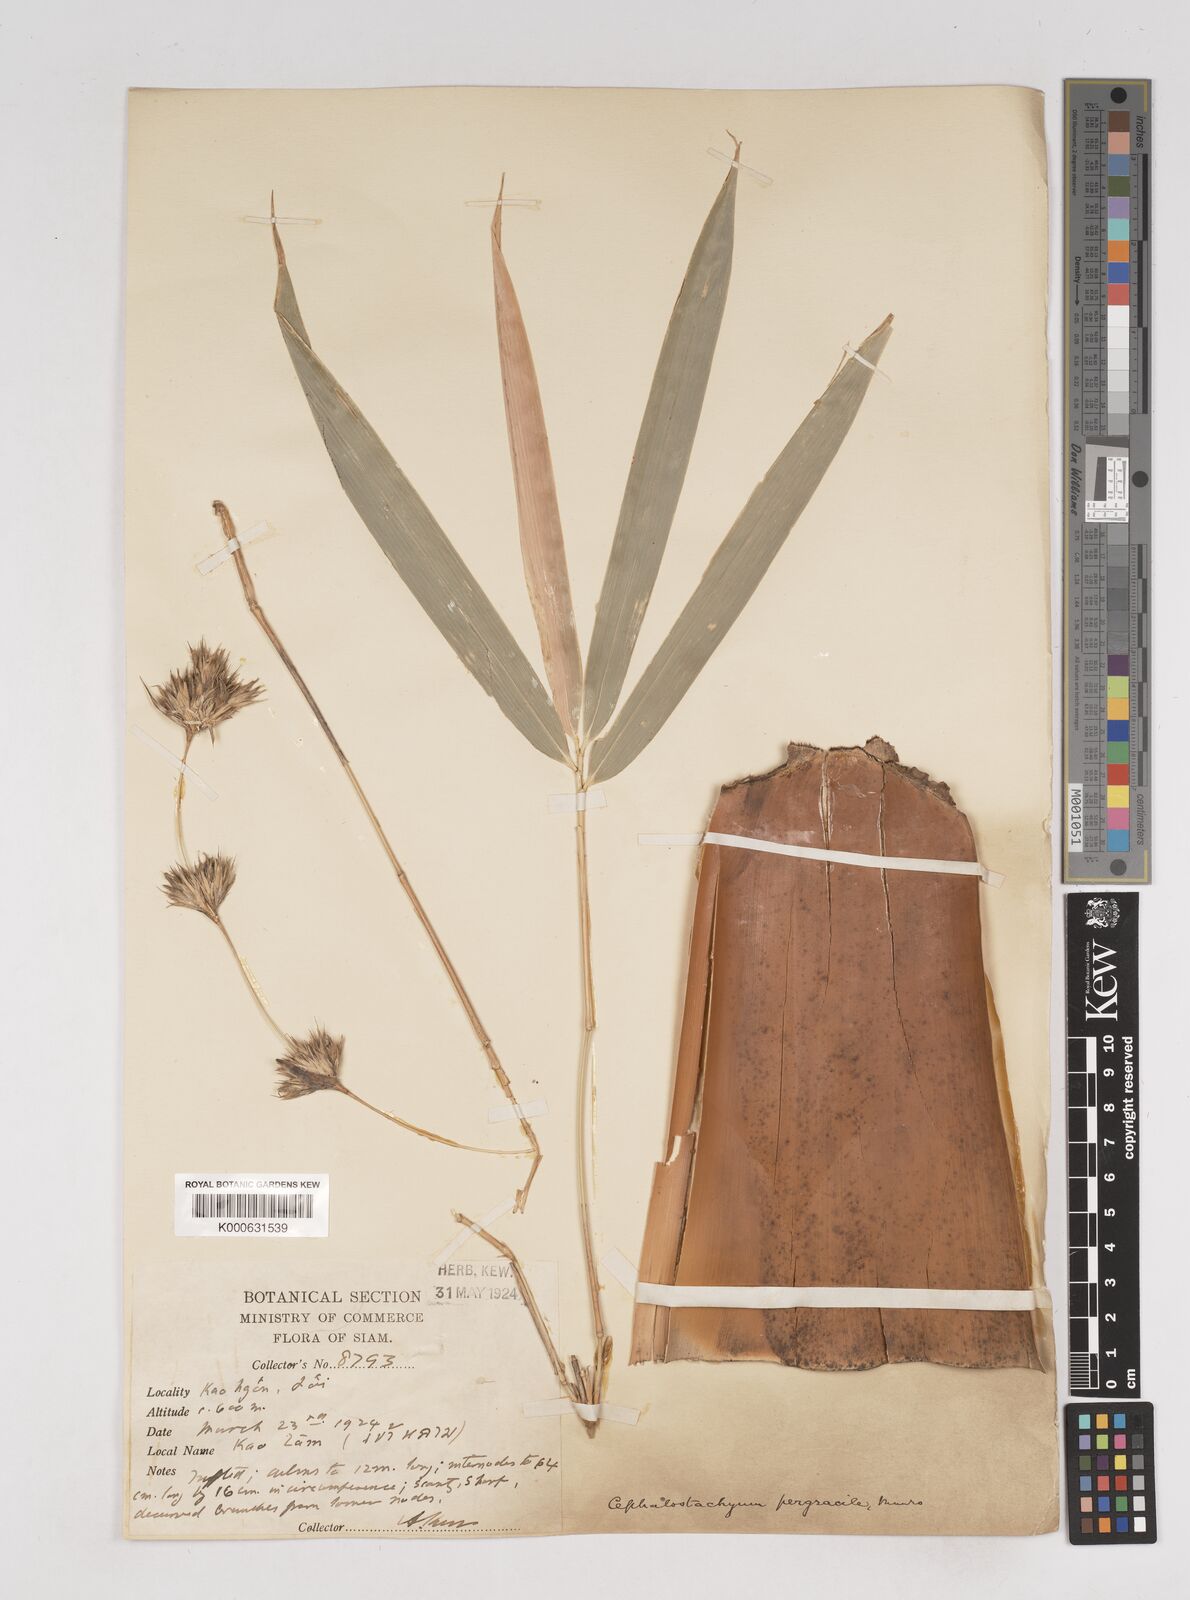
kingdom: Plantae
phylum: Tracheophyta
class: Liliopsida
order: Poales
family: Poaceae
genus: Schizostachyum
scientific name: Schizostachyum pergracile
